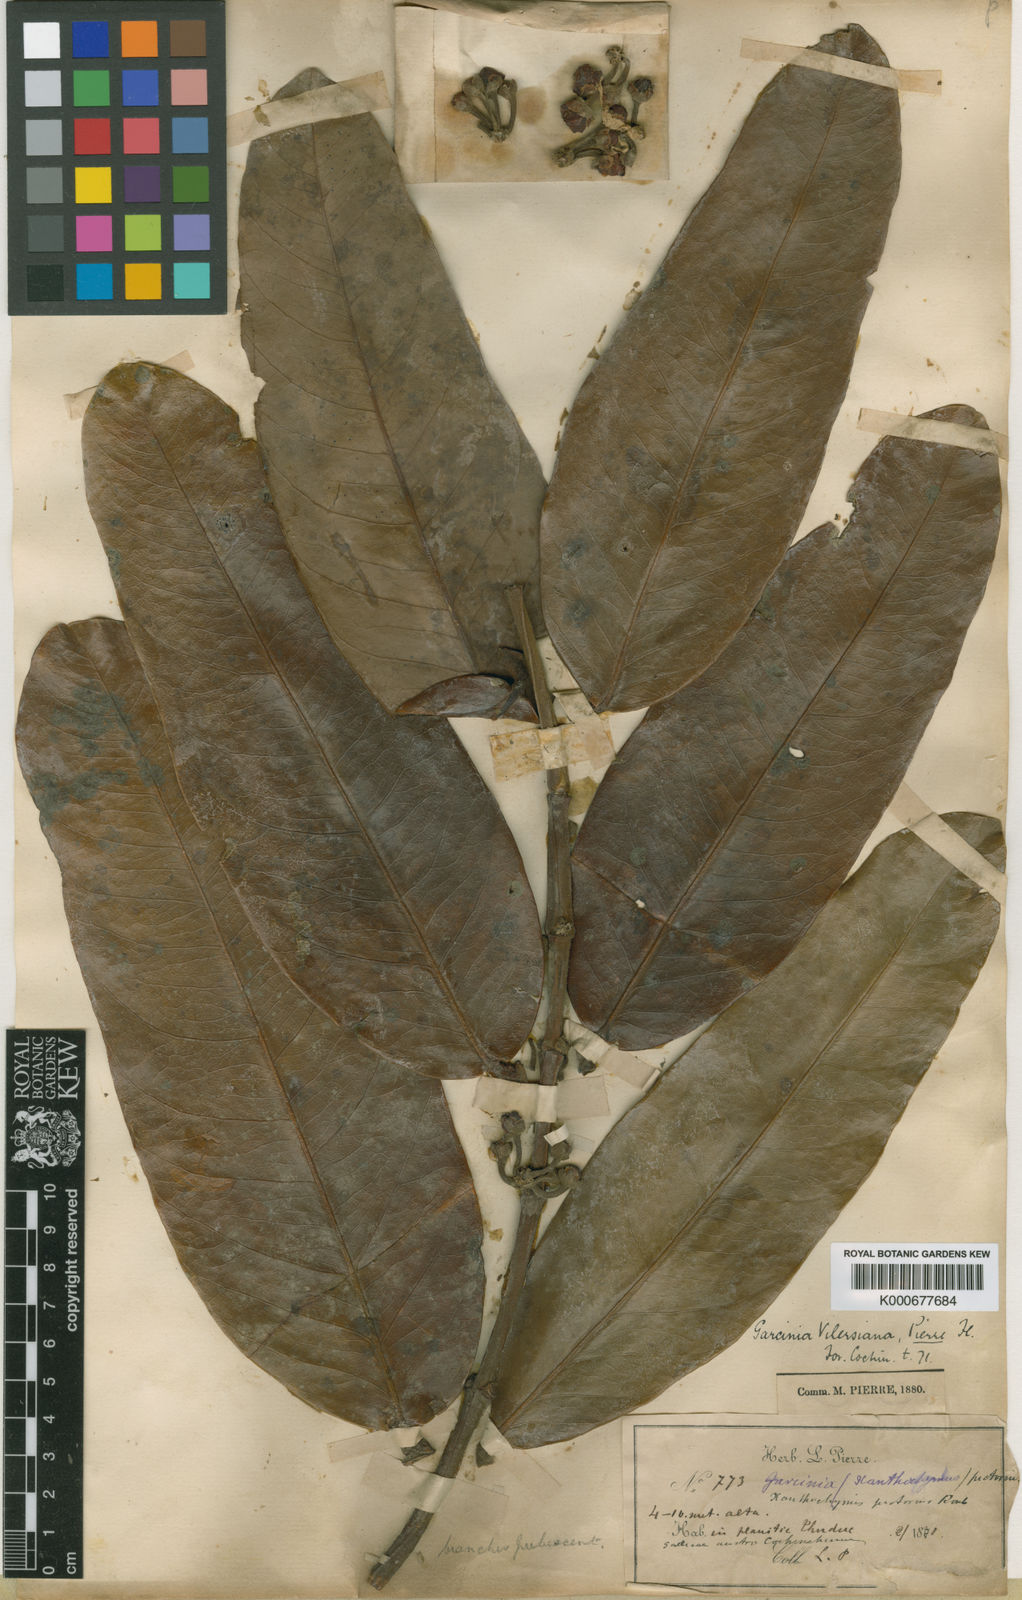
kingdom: Plantae
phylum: Tracheophyta
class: Magnoliopsida
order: Malpighiales
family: Clusiaceae
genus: Garcinia
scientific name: Garcinia vilersiana
